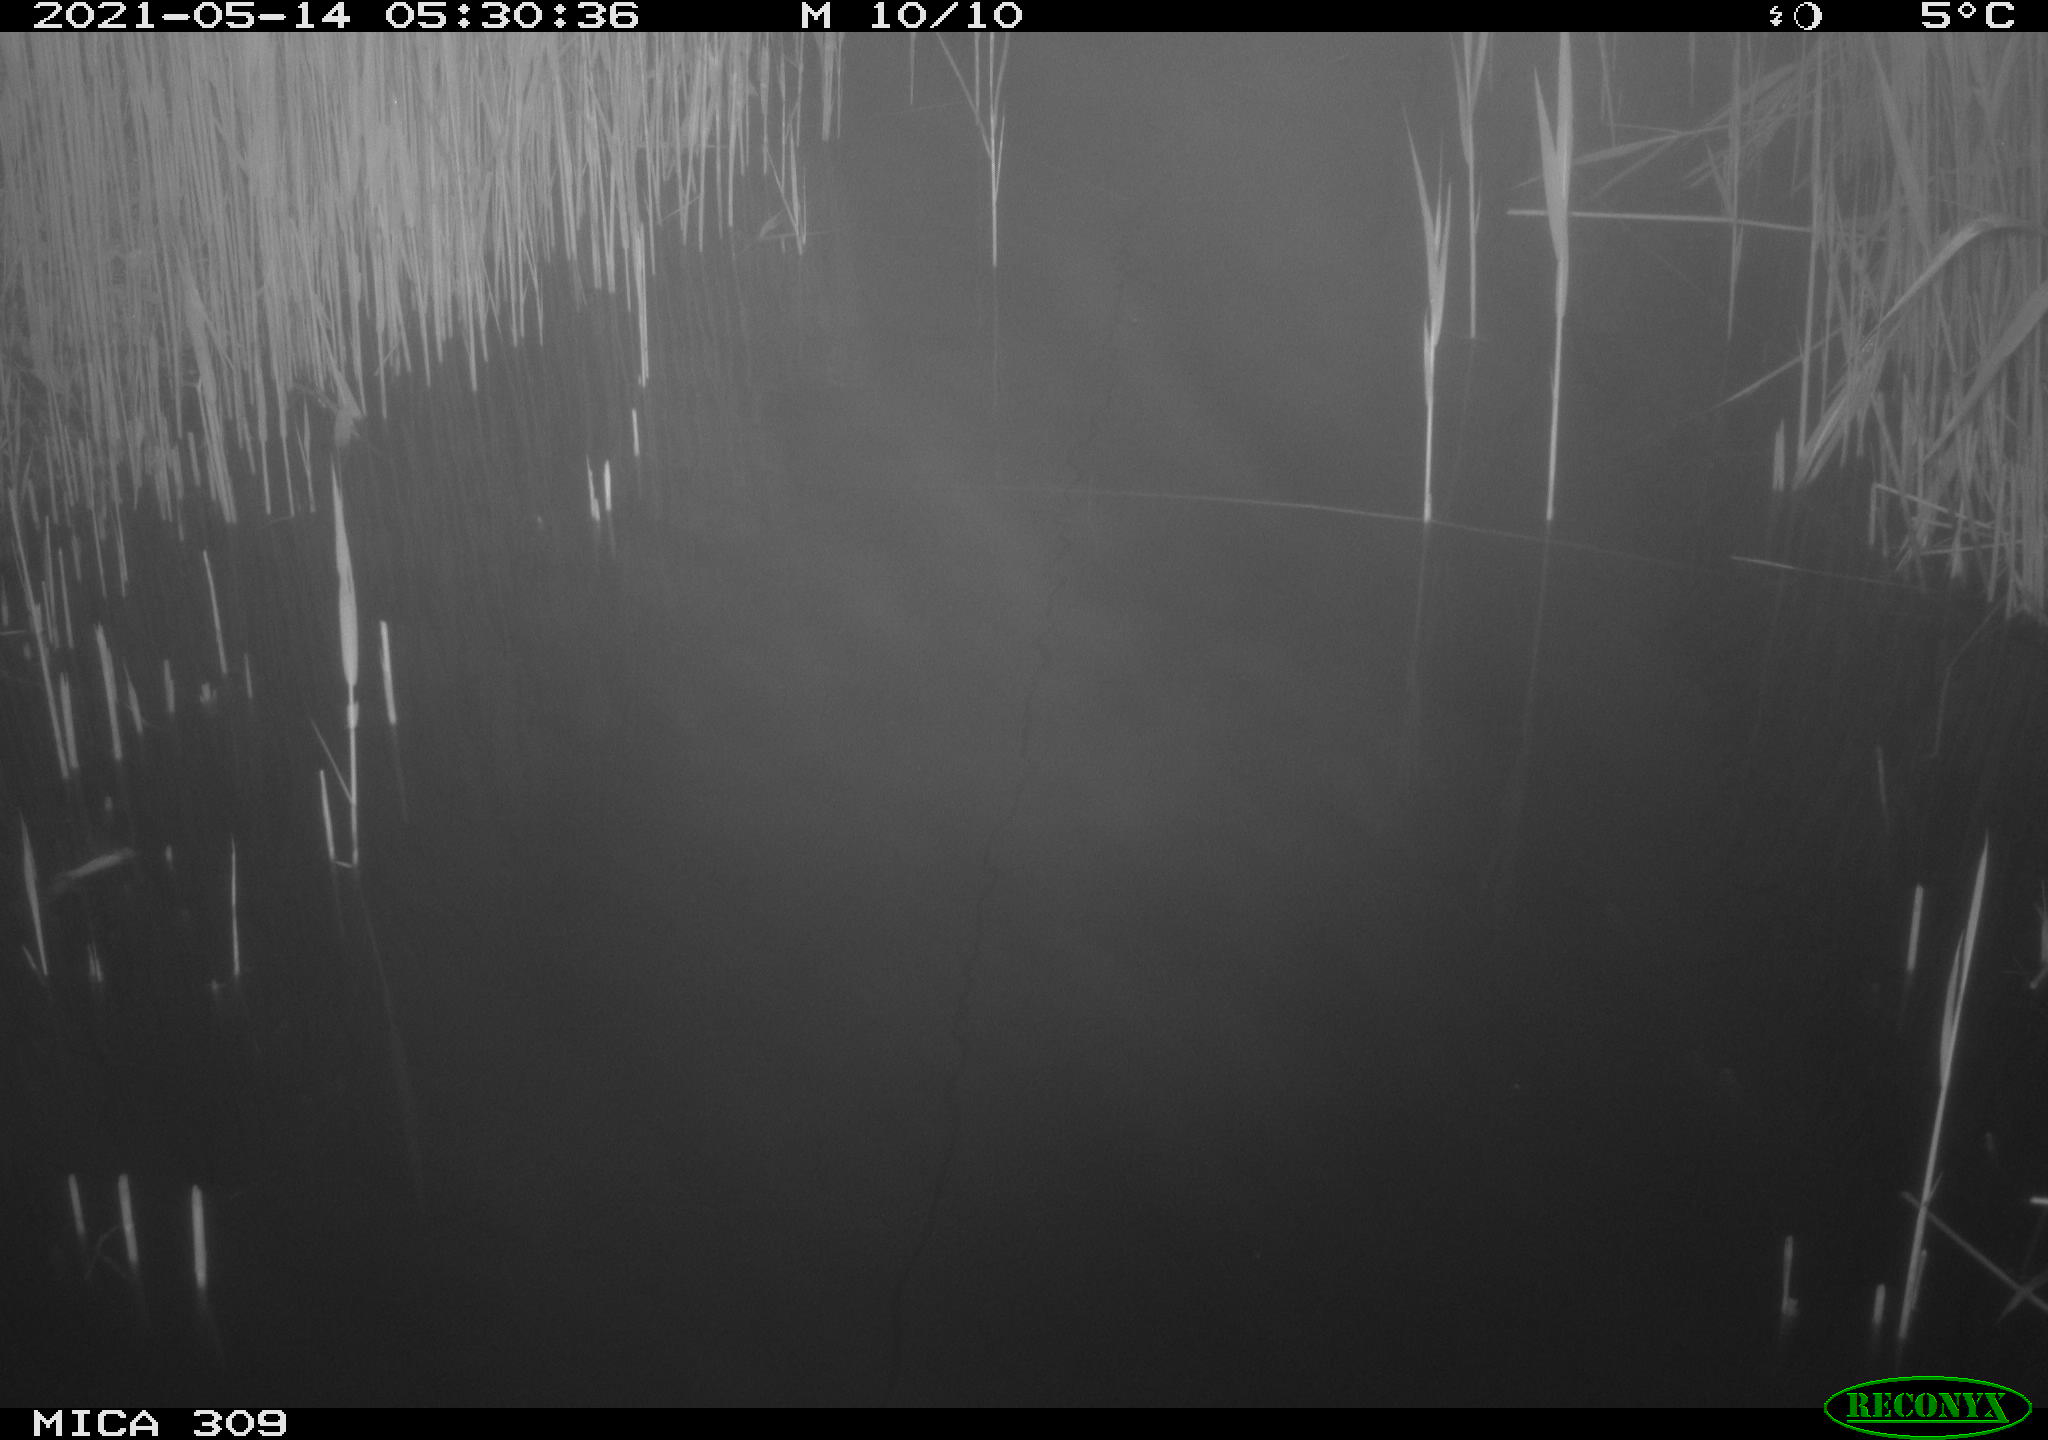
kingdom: Animalia
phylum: Chordata
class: Aves
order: Anseriformes
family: Anatidae
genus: Anas
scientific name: Anas platyrhynchos
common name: Mallard
